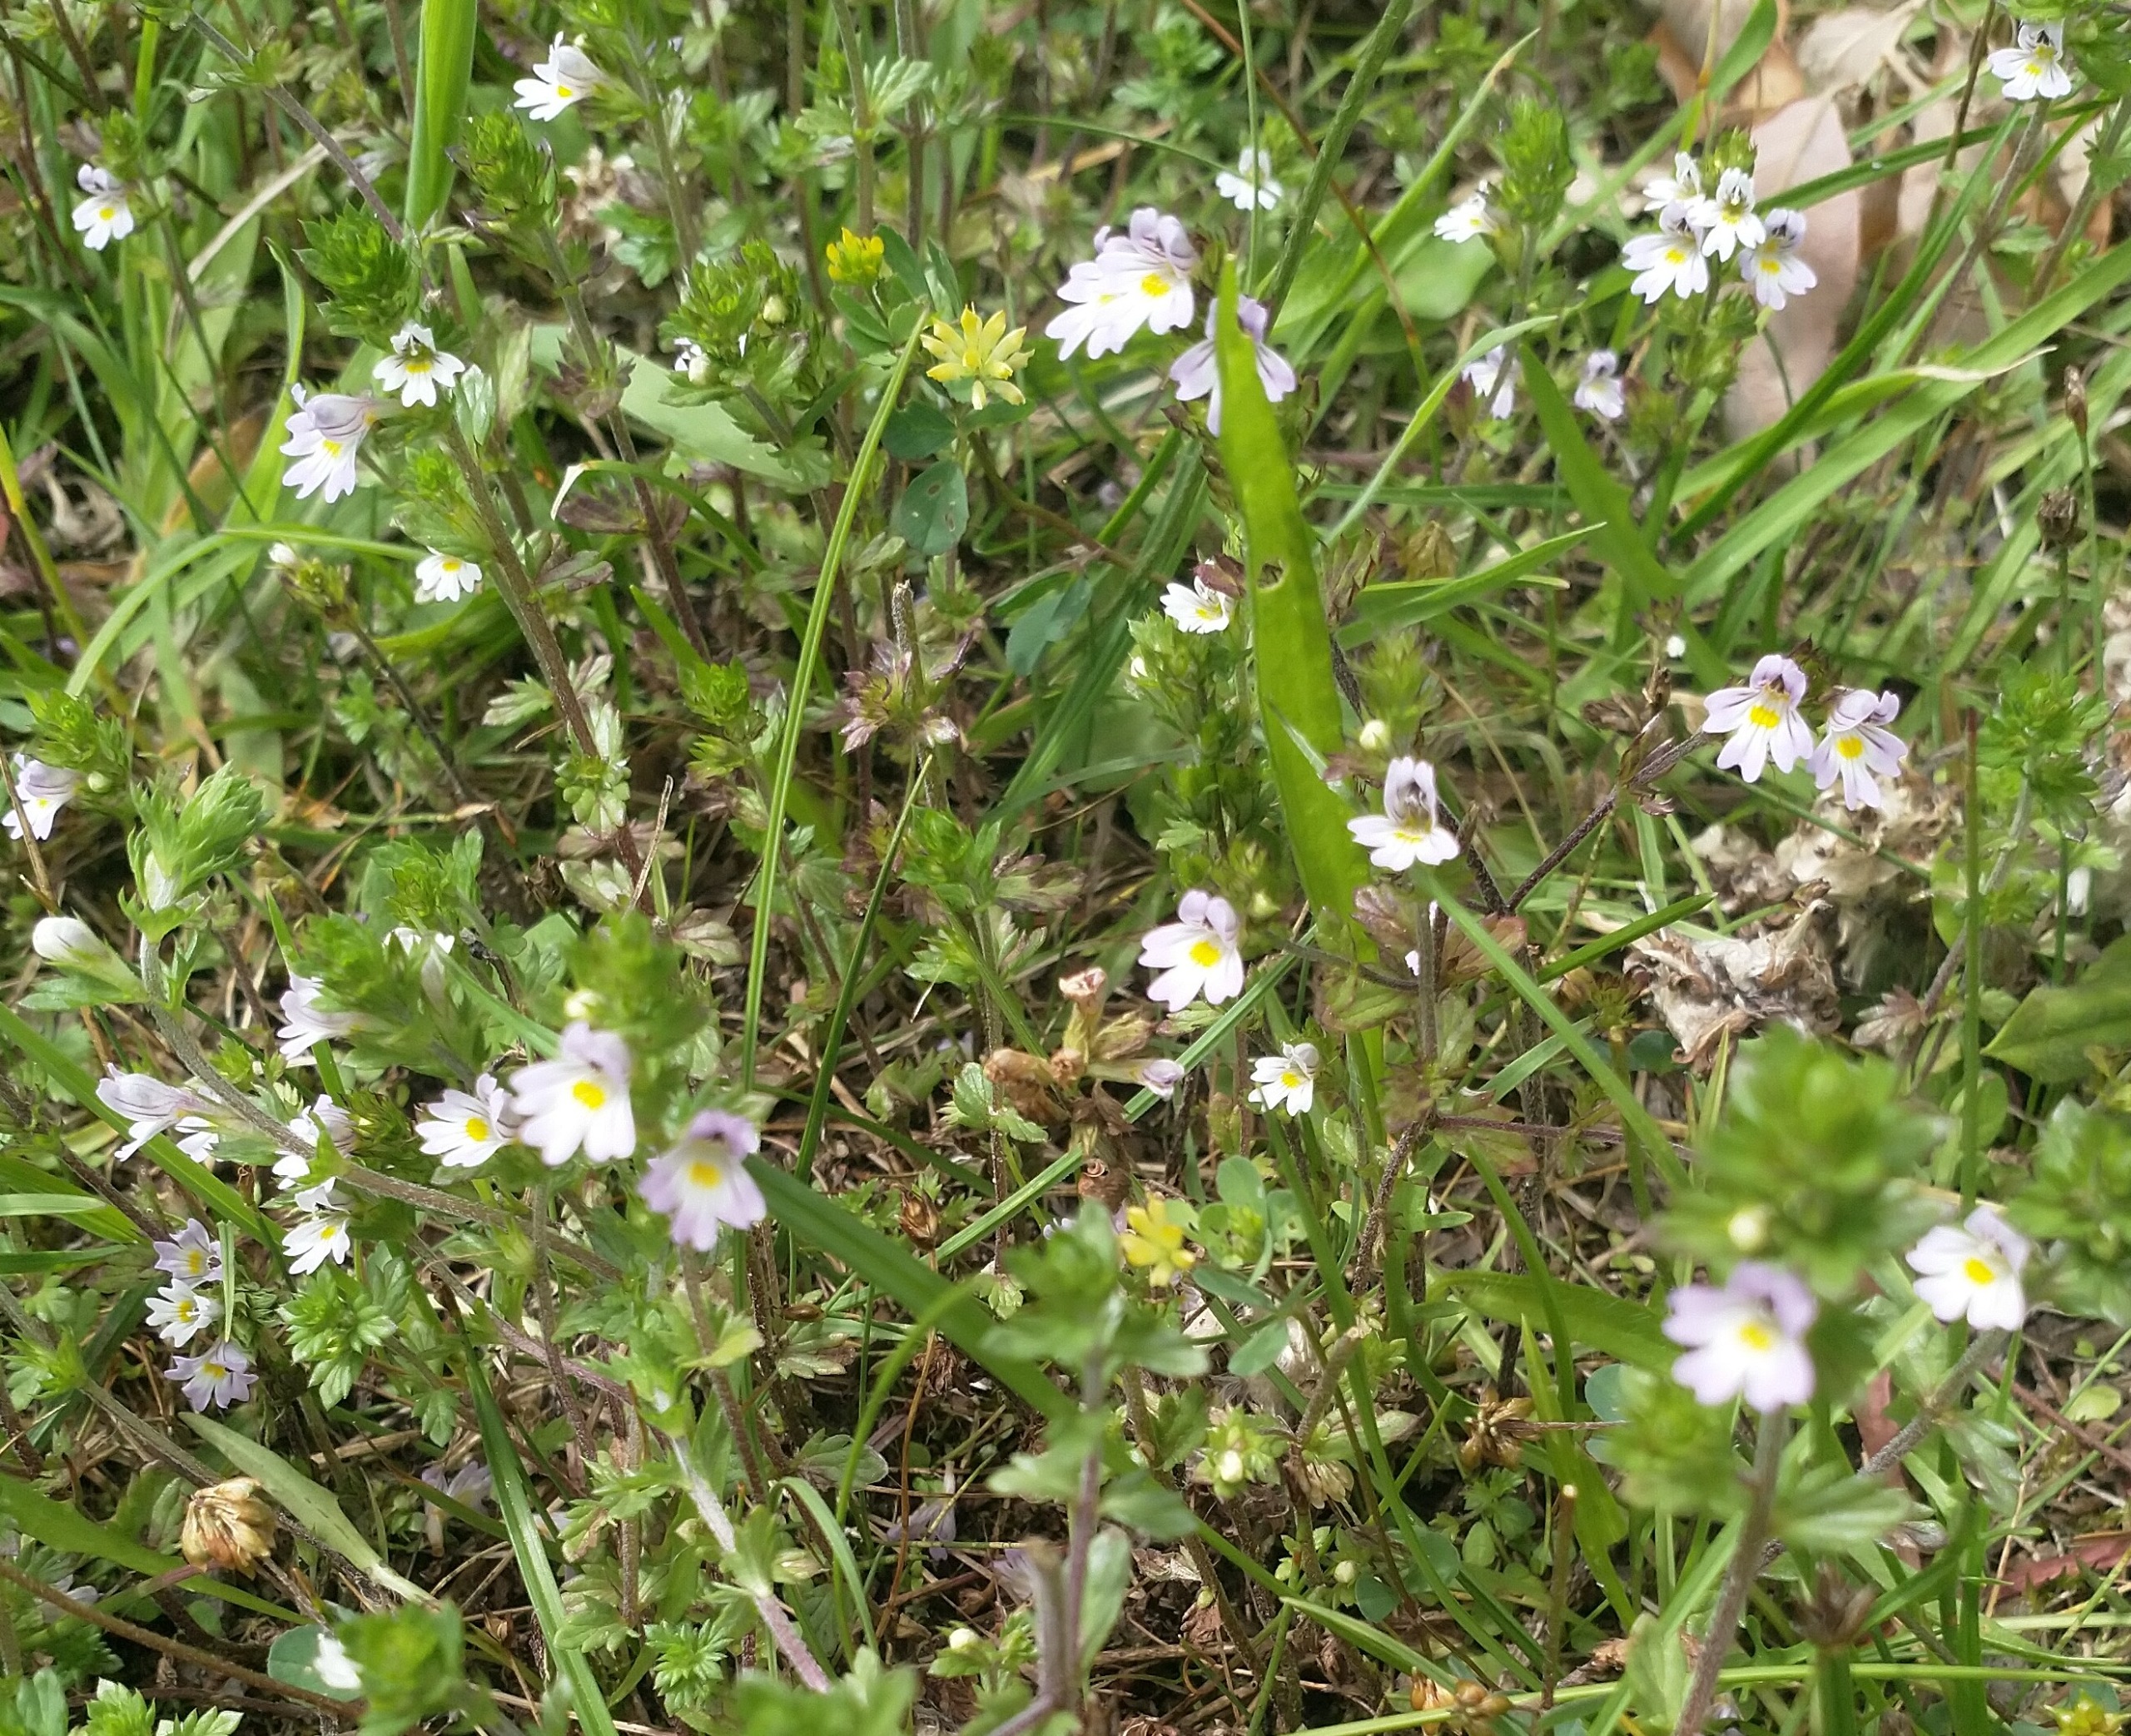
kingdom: Plantae
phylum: Tracheophyta
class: Magnoliopsida
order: Lamiales
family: Orobanchaceae
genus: Euphrasia
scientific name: Euphrasia stricta
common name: Spids øjentrøst
